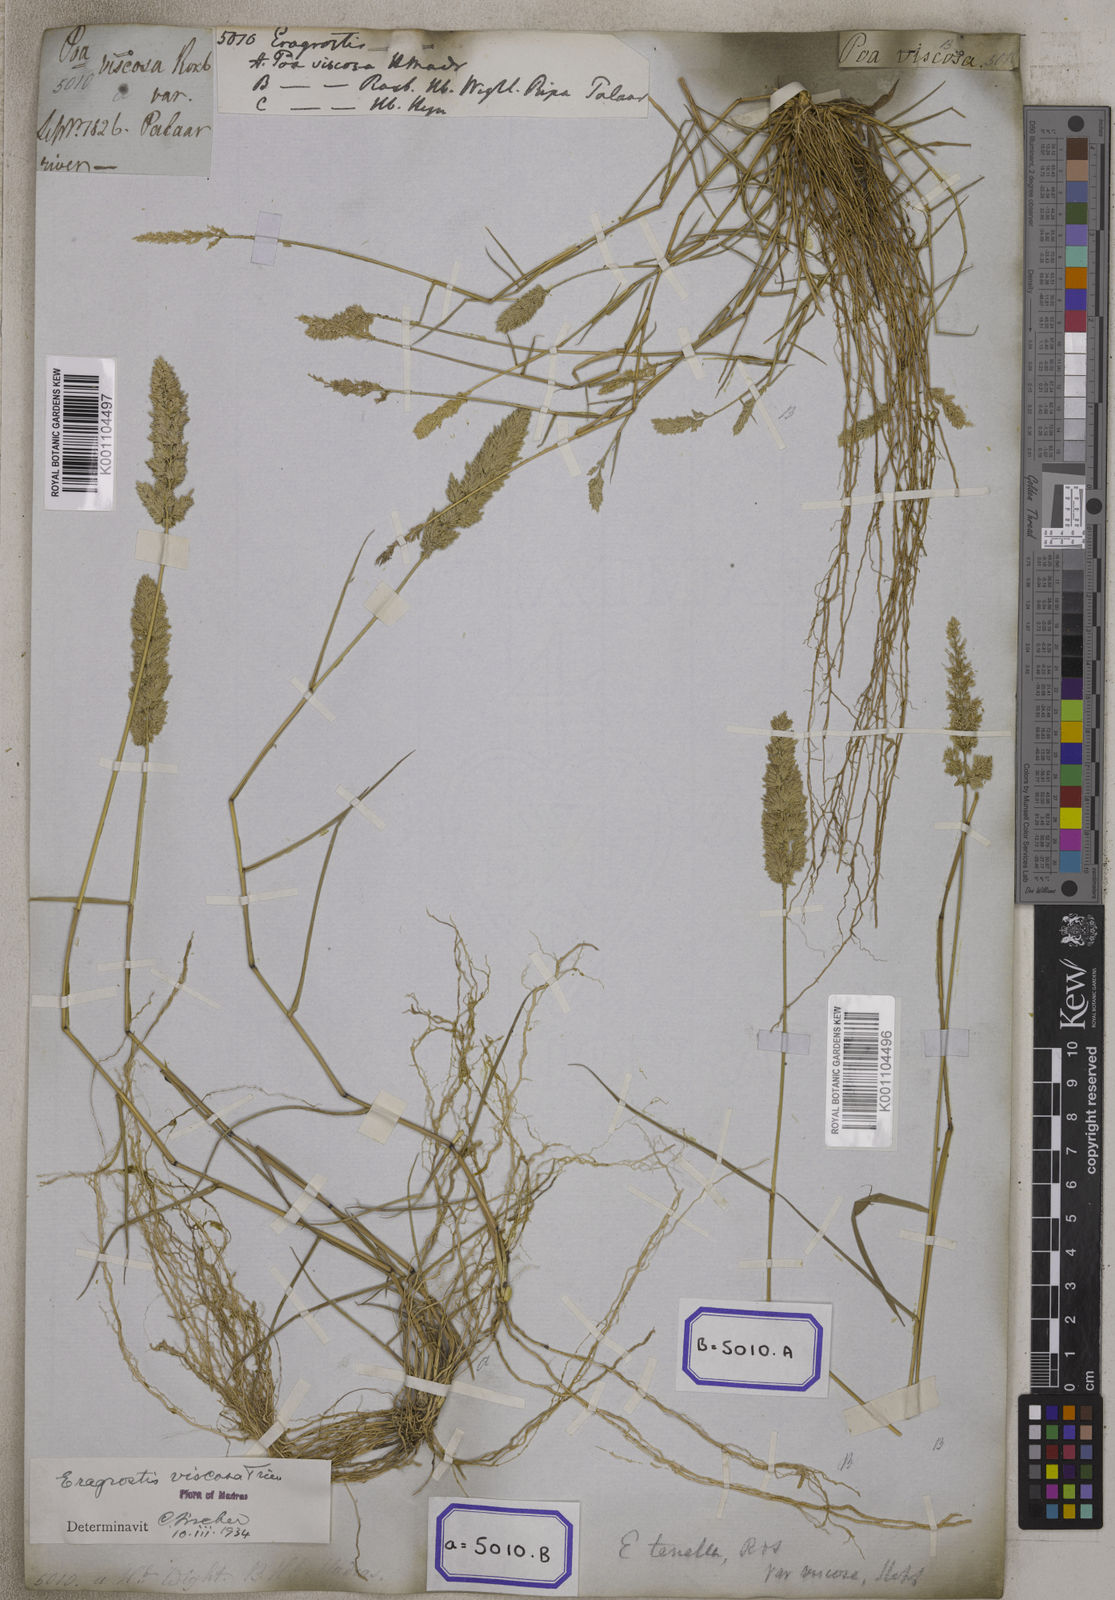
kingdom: Plantae
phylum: Tracheophyta
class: Liliopsida
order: Poales
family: Poaceae
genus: Eragrostis
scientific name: Eragrostis
